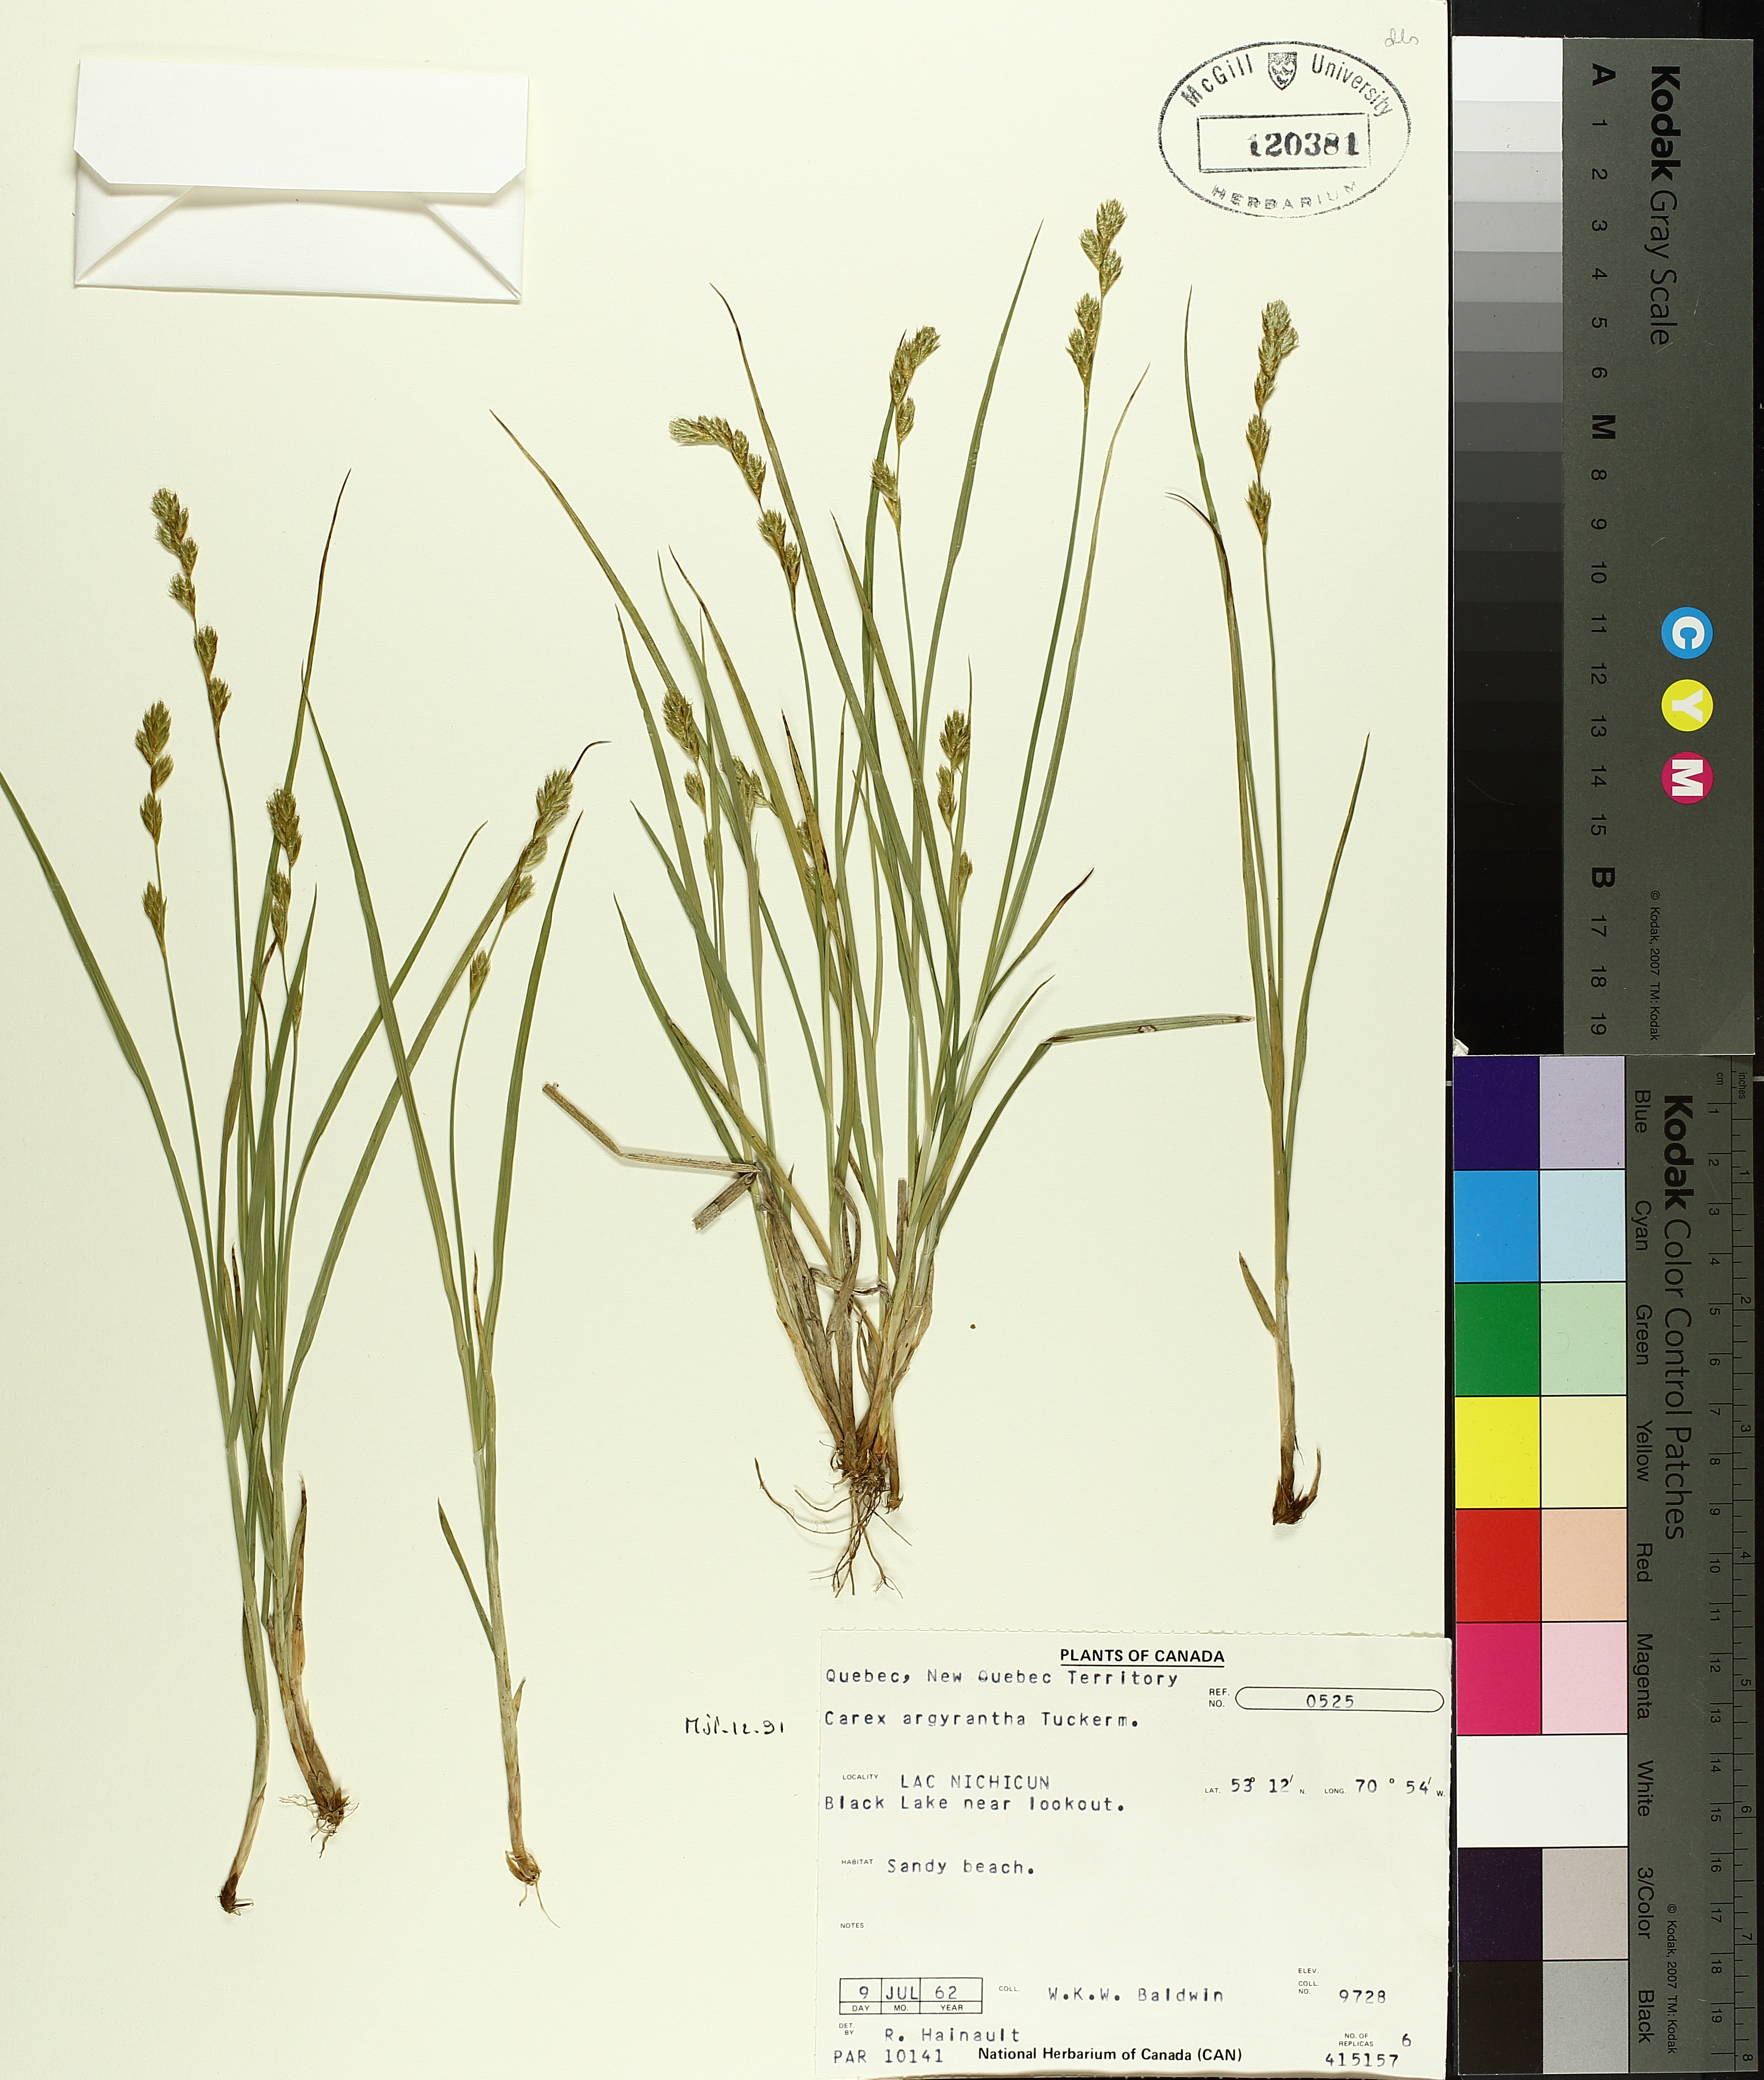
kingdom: Plantae
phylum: Tracheophyta
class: Liliopsida
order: Poales
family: Cyperaceae
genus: Carex
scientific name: Carex argyrantha
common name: Silvery-flowered sedge
